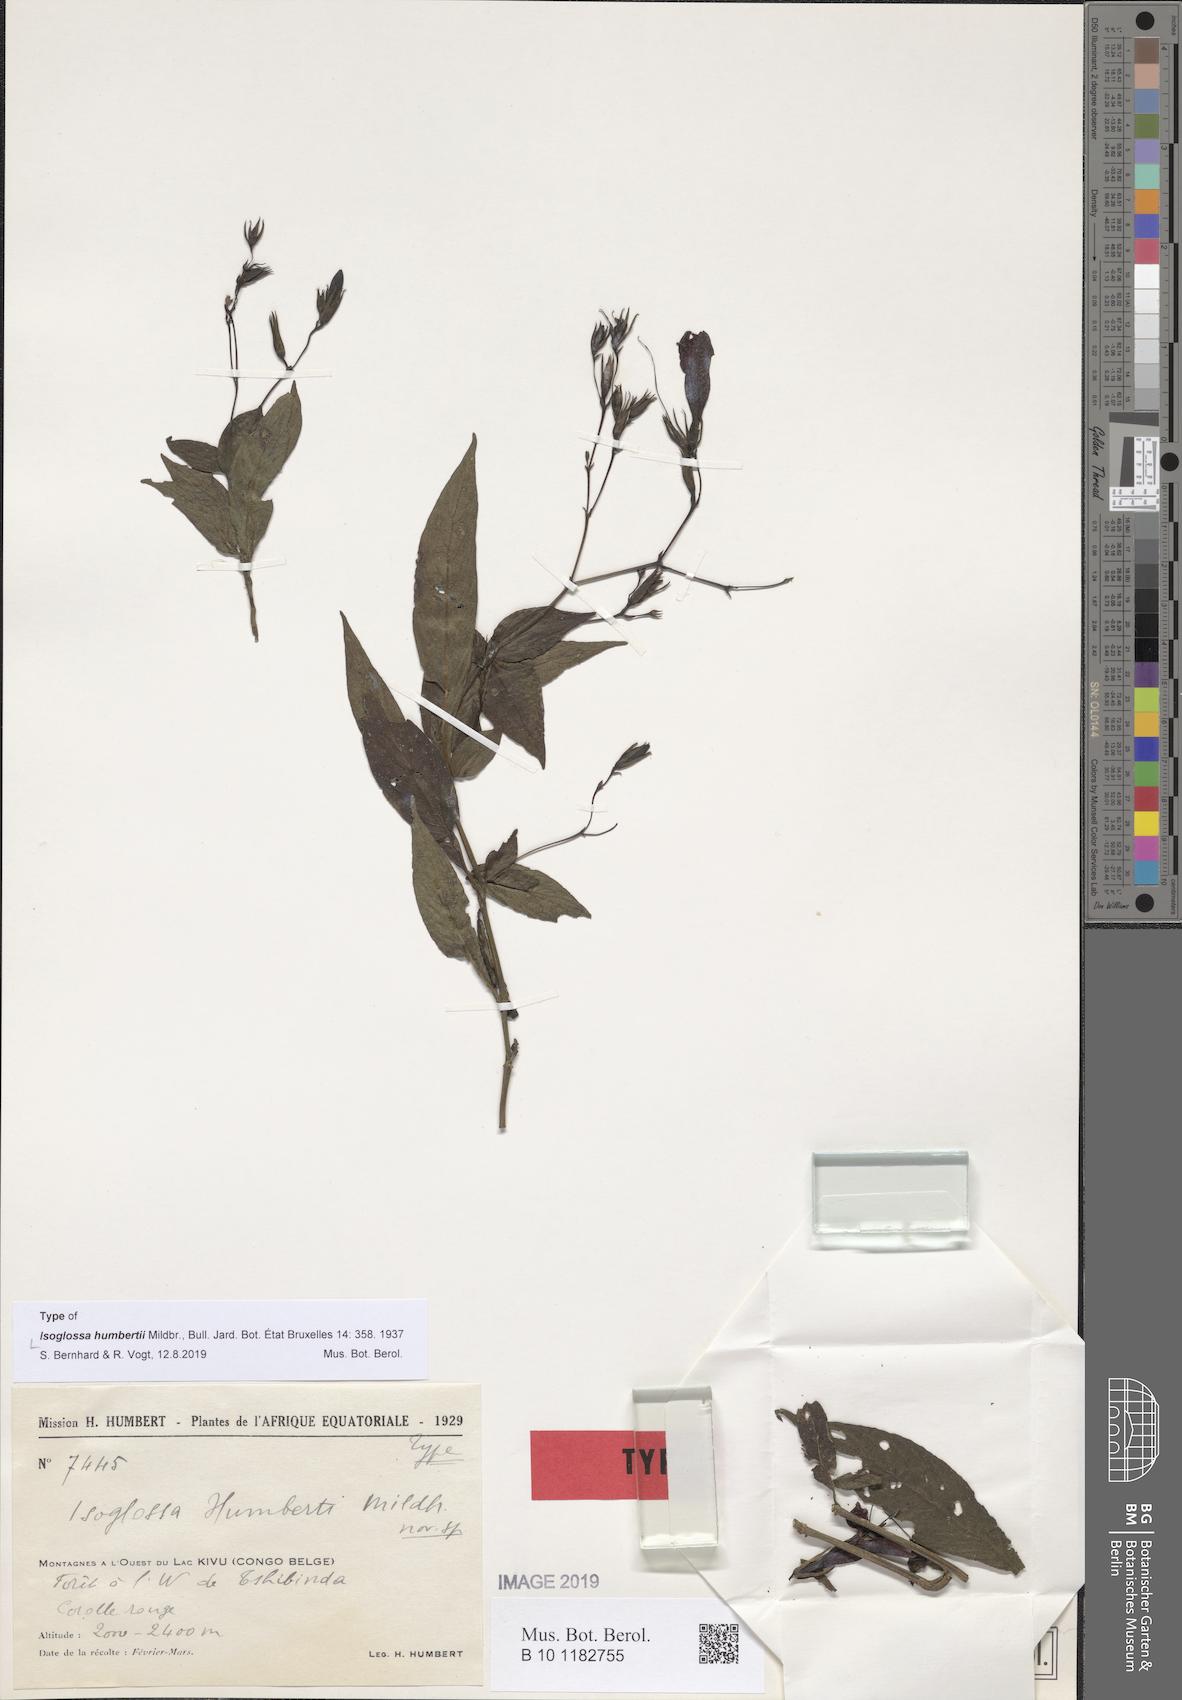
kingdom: Plantae
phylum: Tracheophyta
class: Magnoliopsida
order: Lamiales
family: Acanthaceae
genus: Isoglossa
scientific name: Isoglossa humbertii
